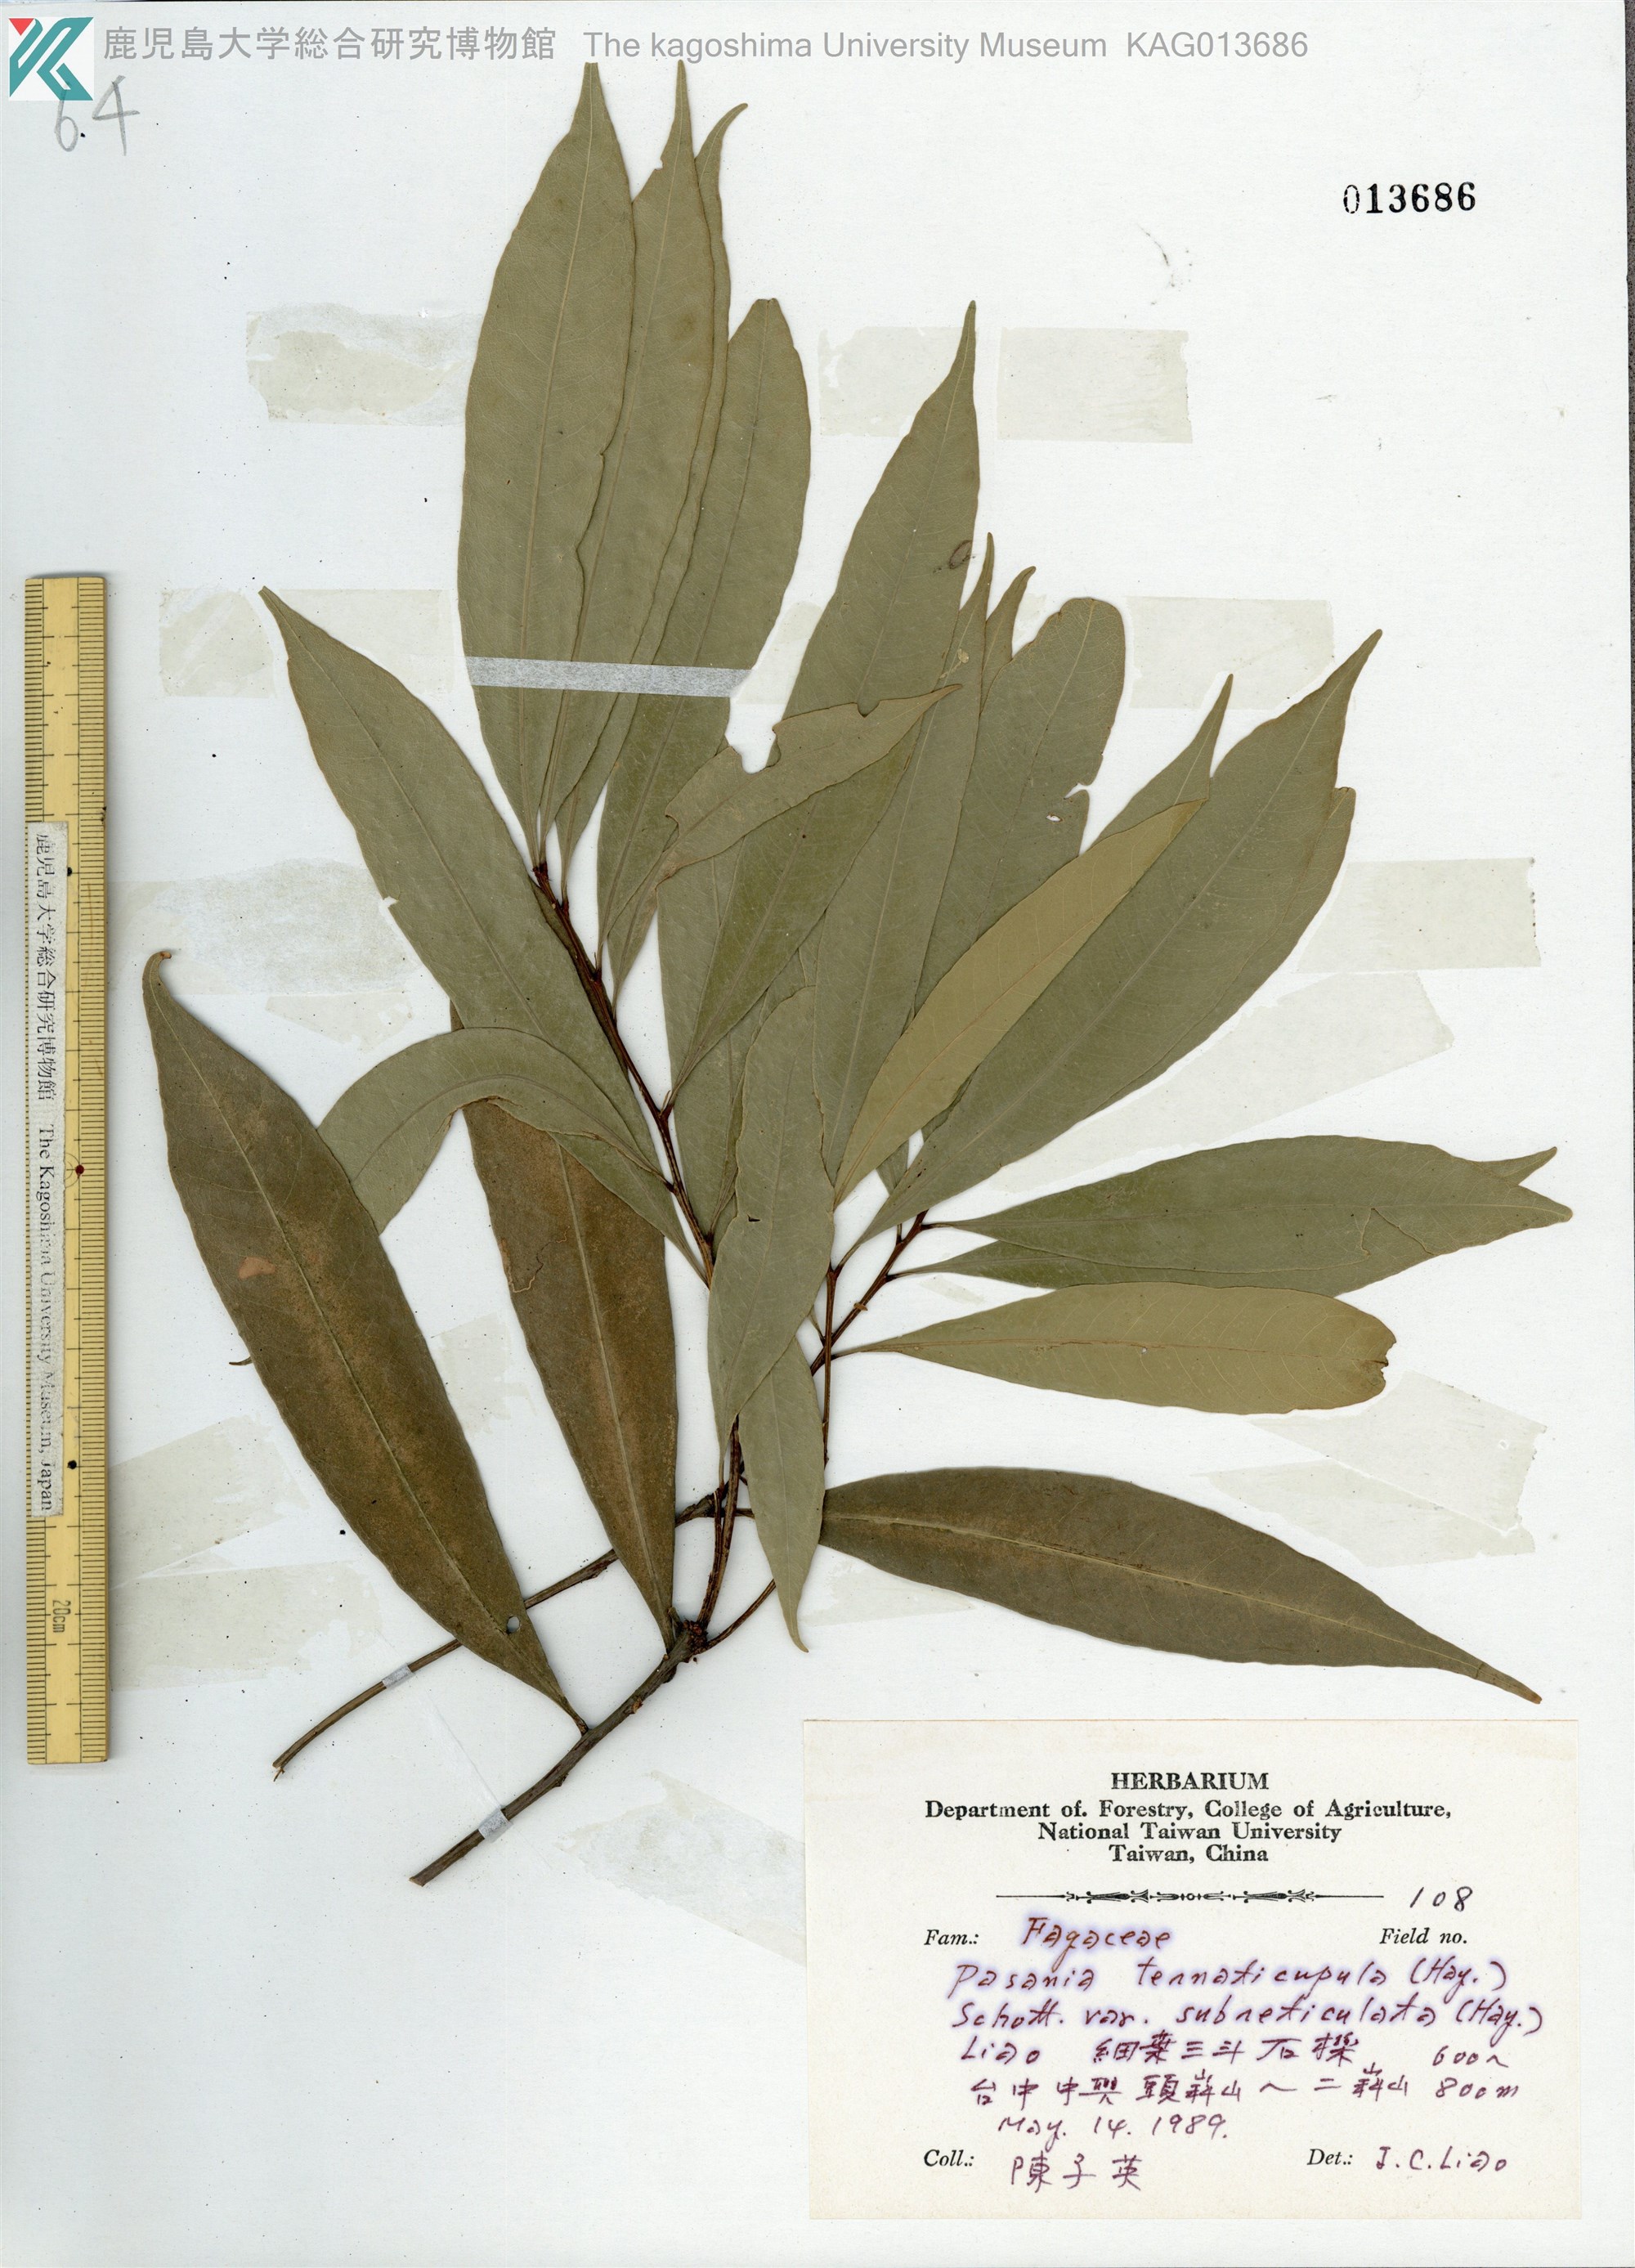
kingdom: Plantae
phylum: Tracheophyta
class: Magnoliopsida
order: Fagales
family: Fagaceae
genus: Lithocarpus
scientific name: Lithocarpus hancei
